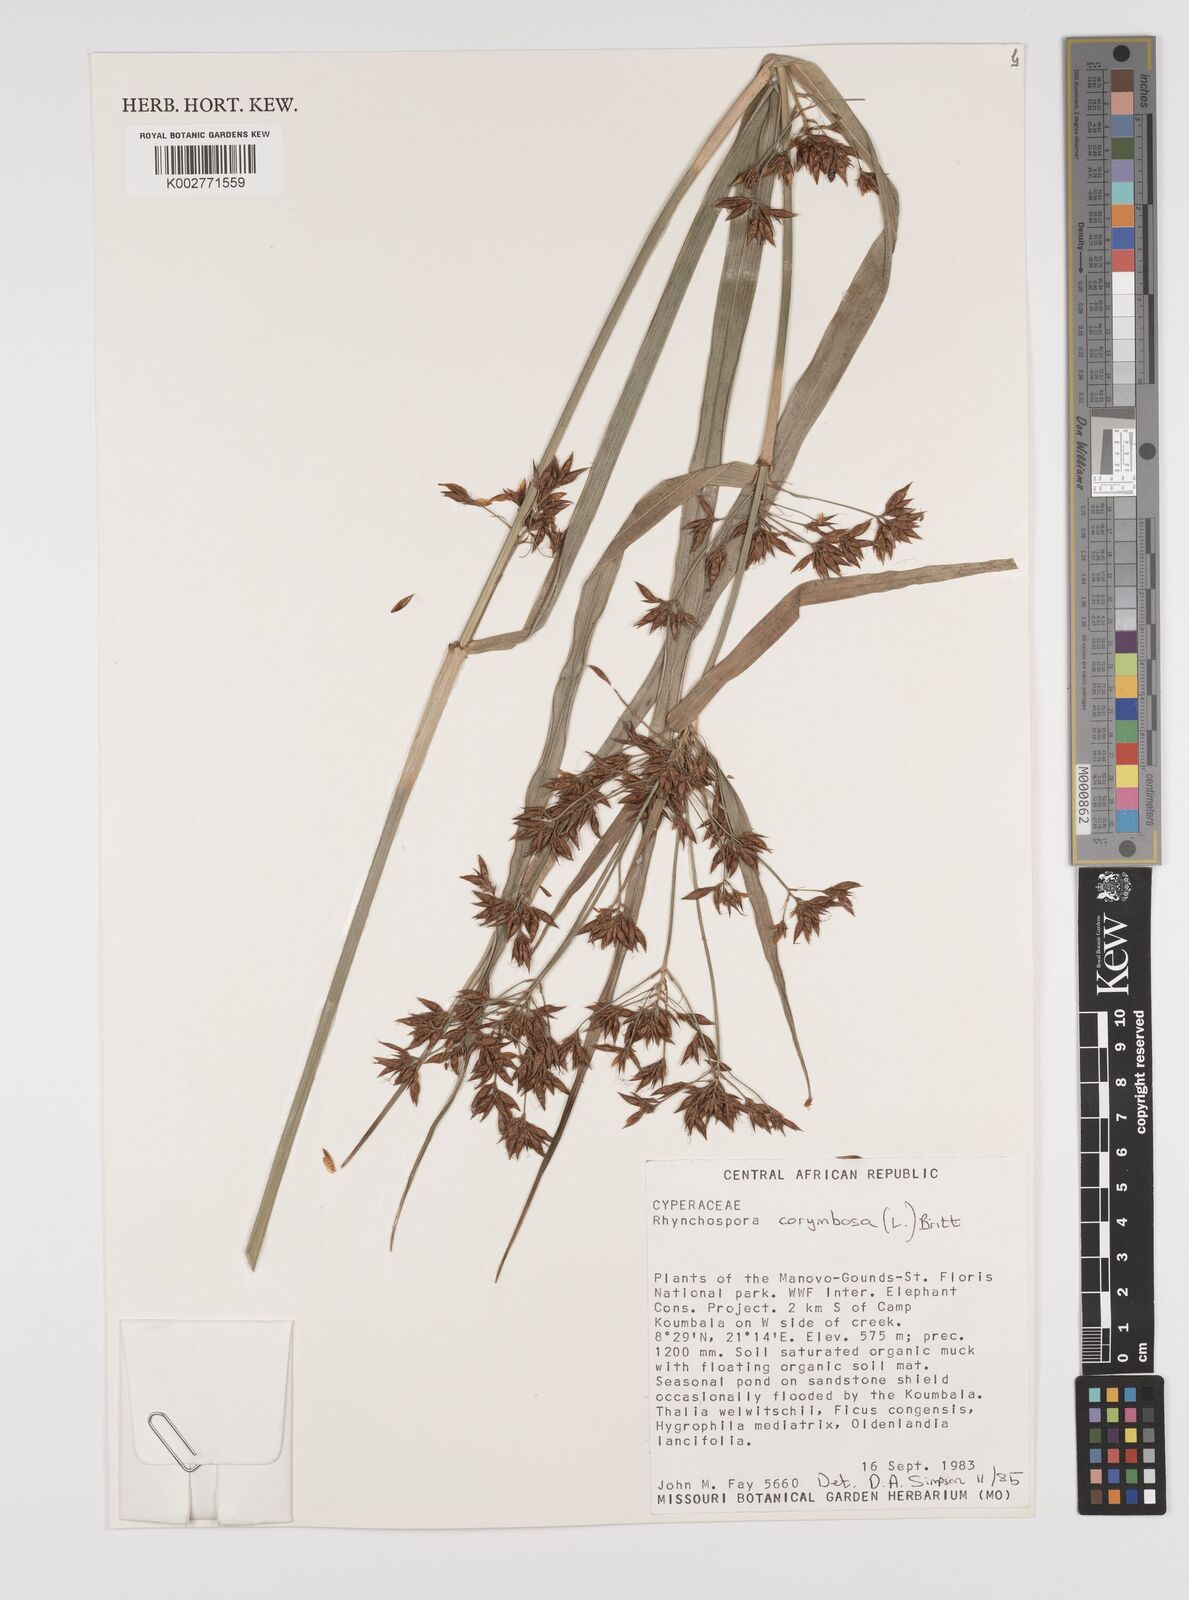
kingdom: Plantae
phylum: Tracheophyta
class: Liliopsida
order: Poales
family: Cyperaceae
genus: Rhynchospora
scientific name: Rhynchospora corymbosa
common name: Golden beak sedge
